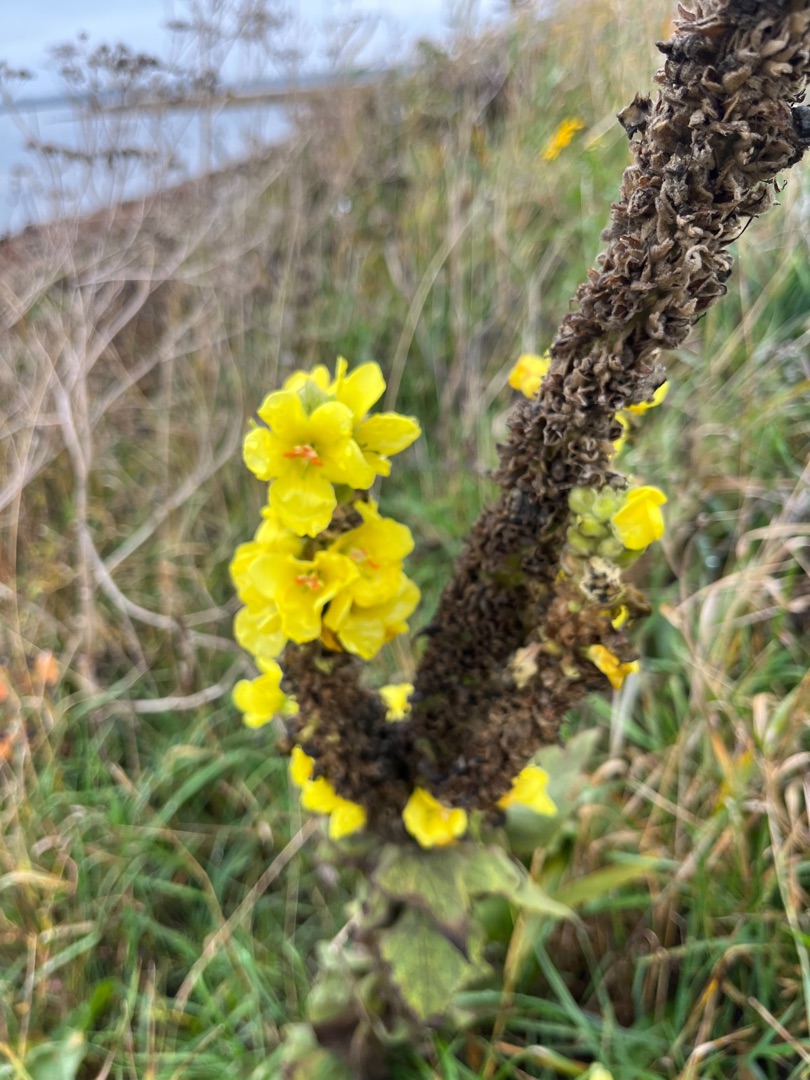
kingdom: Plantae
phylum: Tracheophyta
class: Magnoliopsida
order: Lamiales
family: Scrophulariaceae
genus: Verbascum
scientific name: Verbascum densiflorum
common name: Uldbladet kongelys
